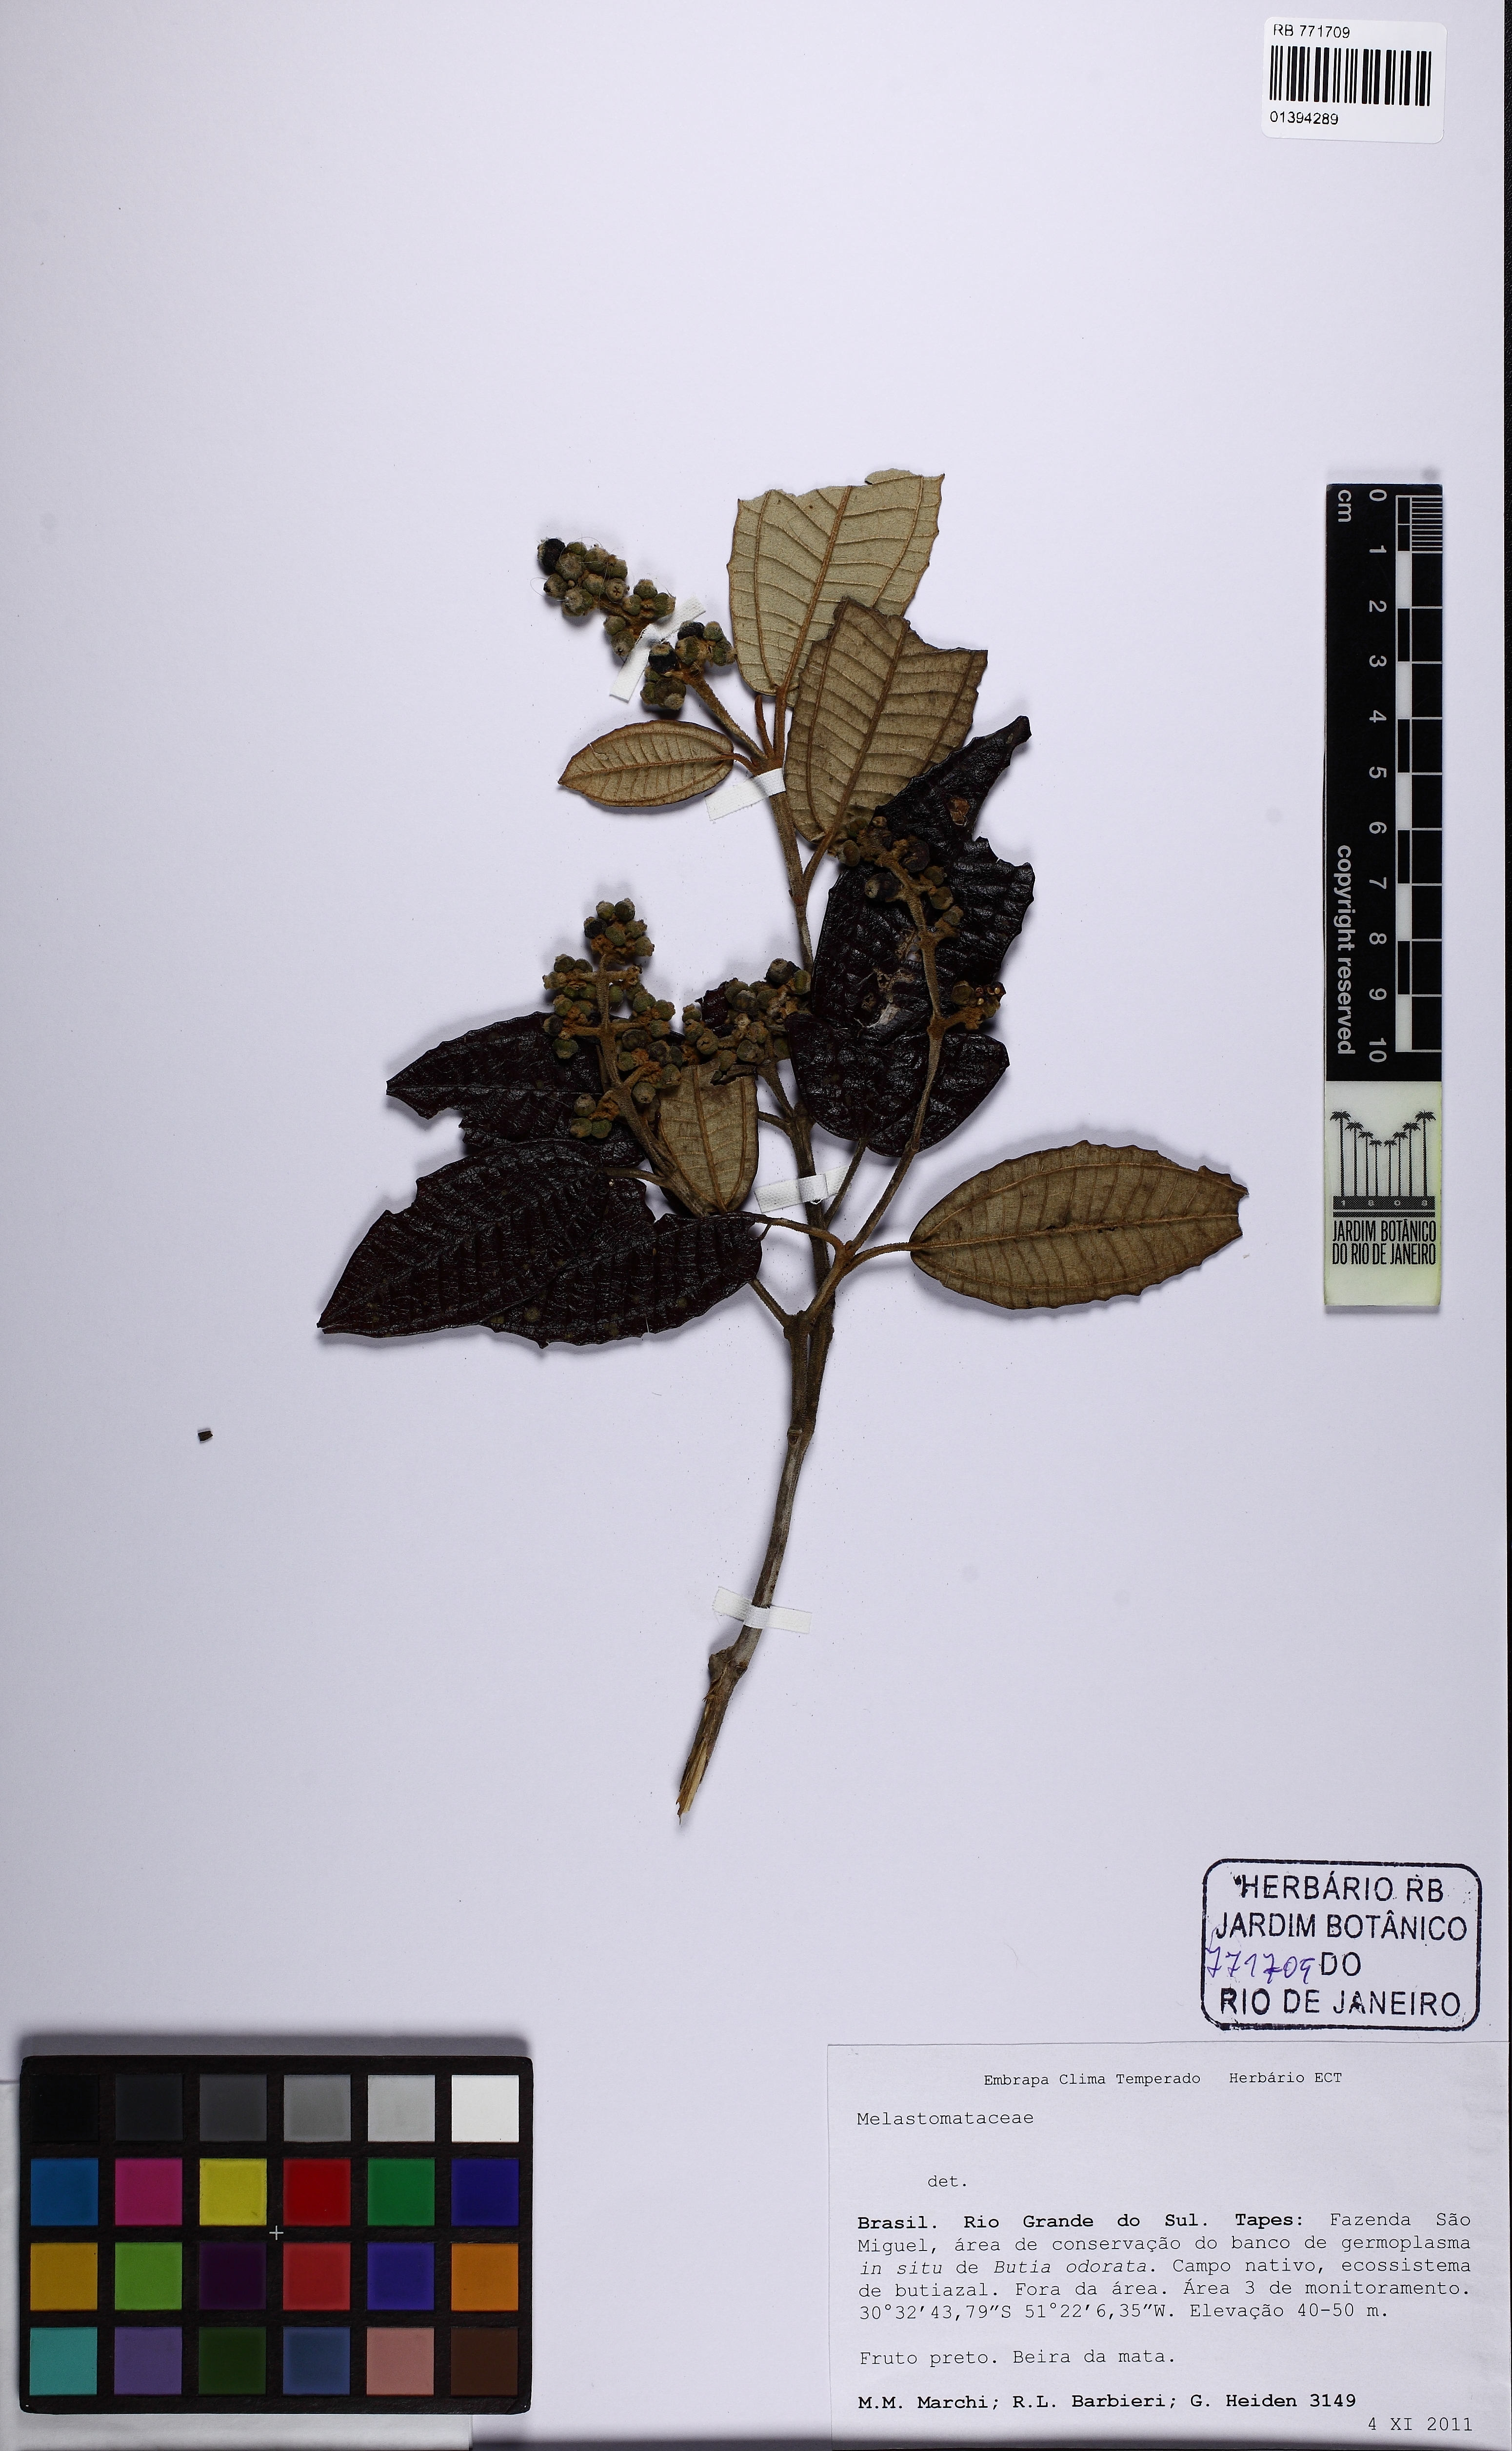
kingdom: Plantae
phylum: Tracheophyta
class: Magnoliopsida
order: Myrtales
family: Melastomataceae
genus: Miconia
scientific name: Miconia hyemalis
